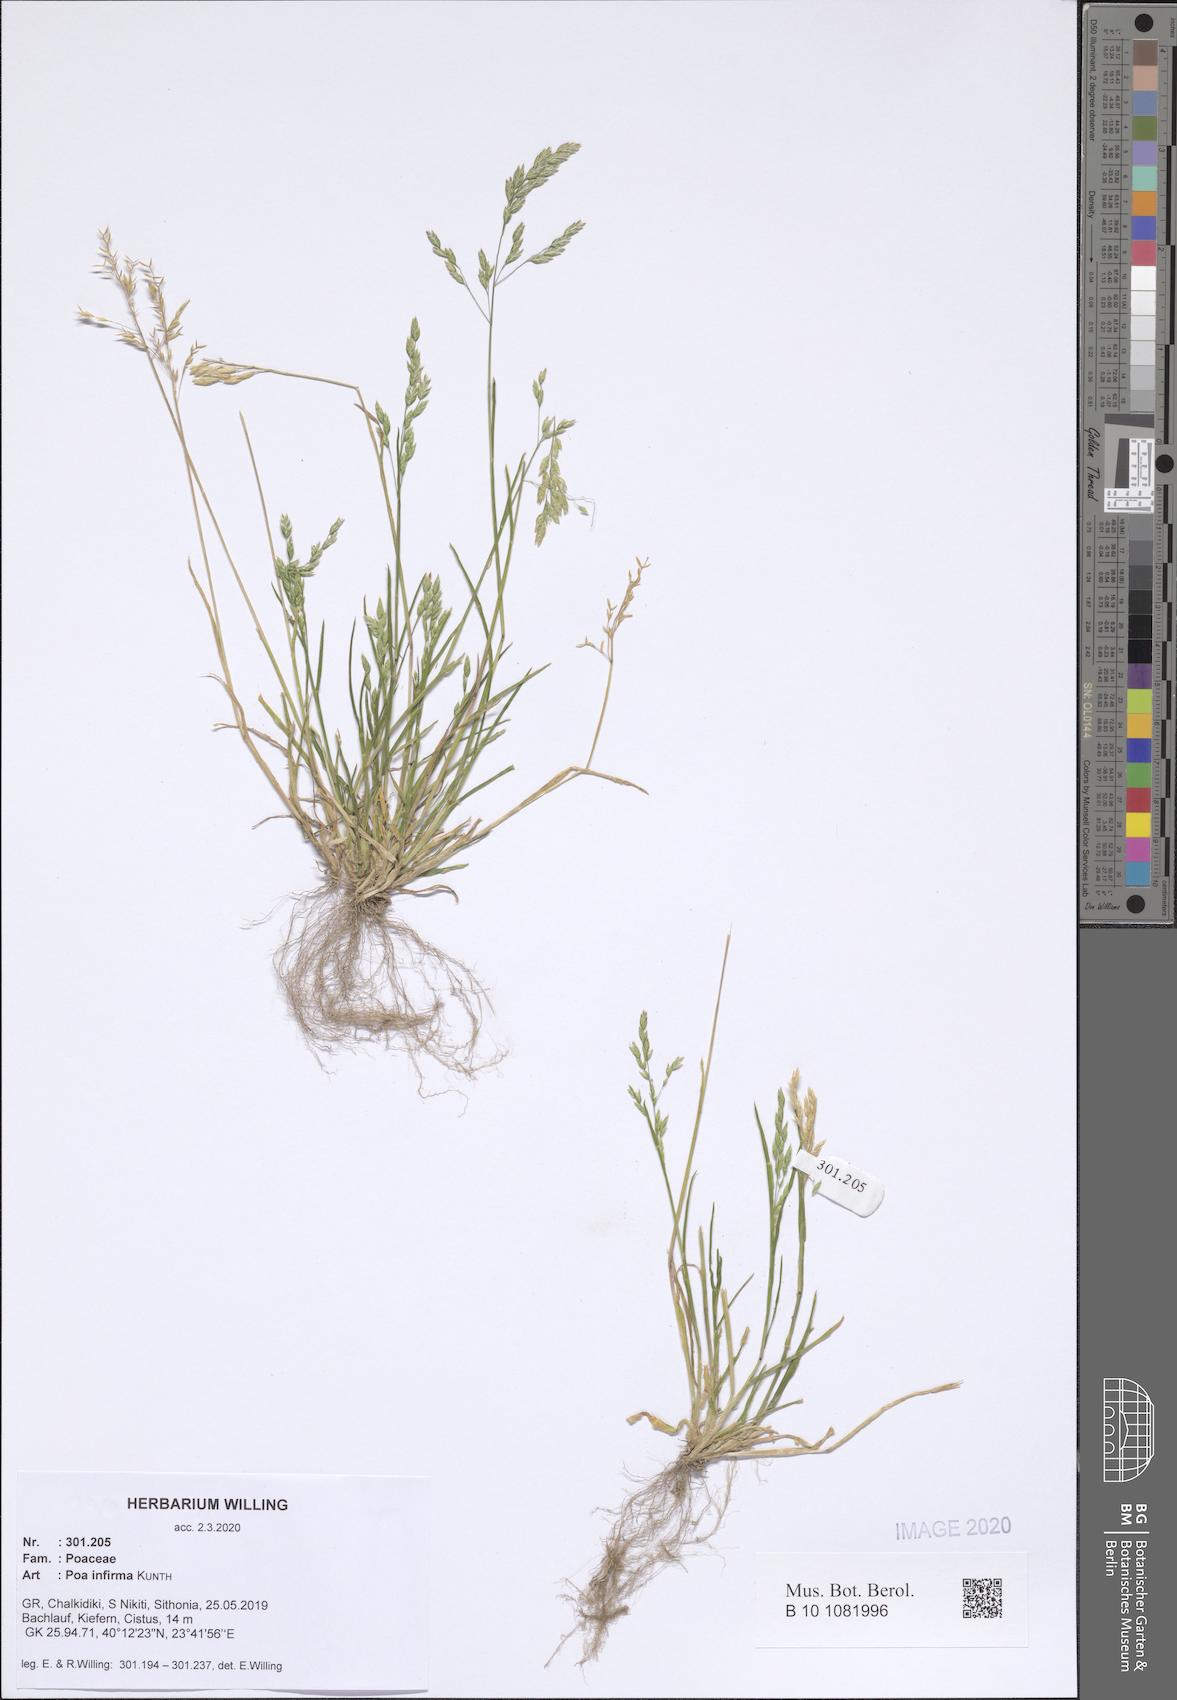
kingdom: Plantae
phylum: Tracheophyta
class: Liliopsida
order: Poales
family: Poaceae
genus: Poa
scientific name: Poa infirma
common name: Weak bluegrass
